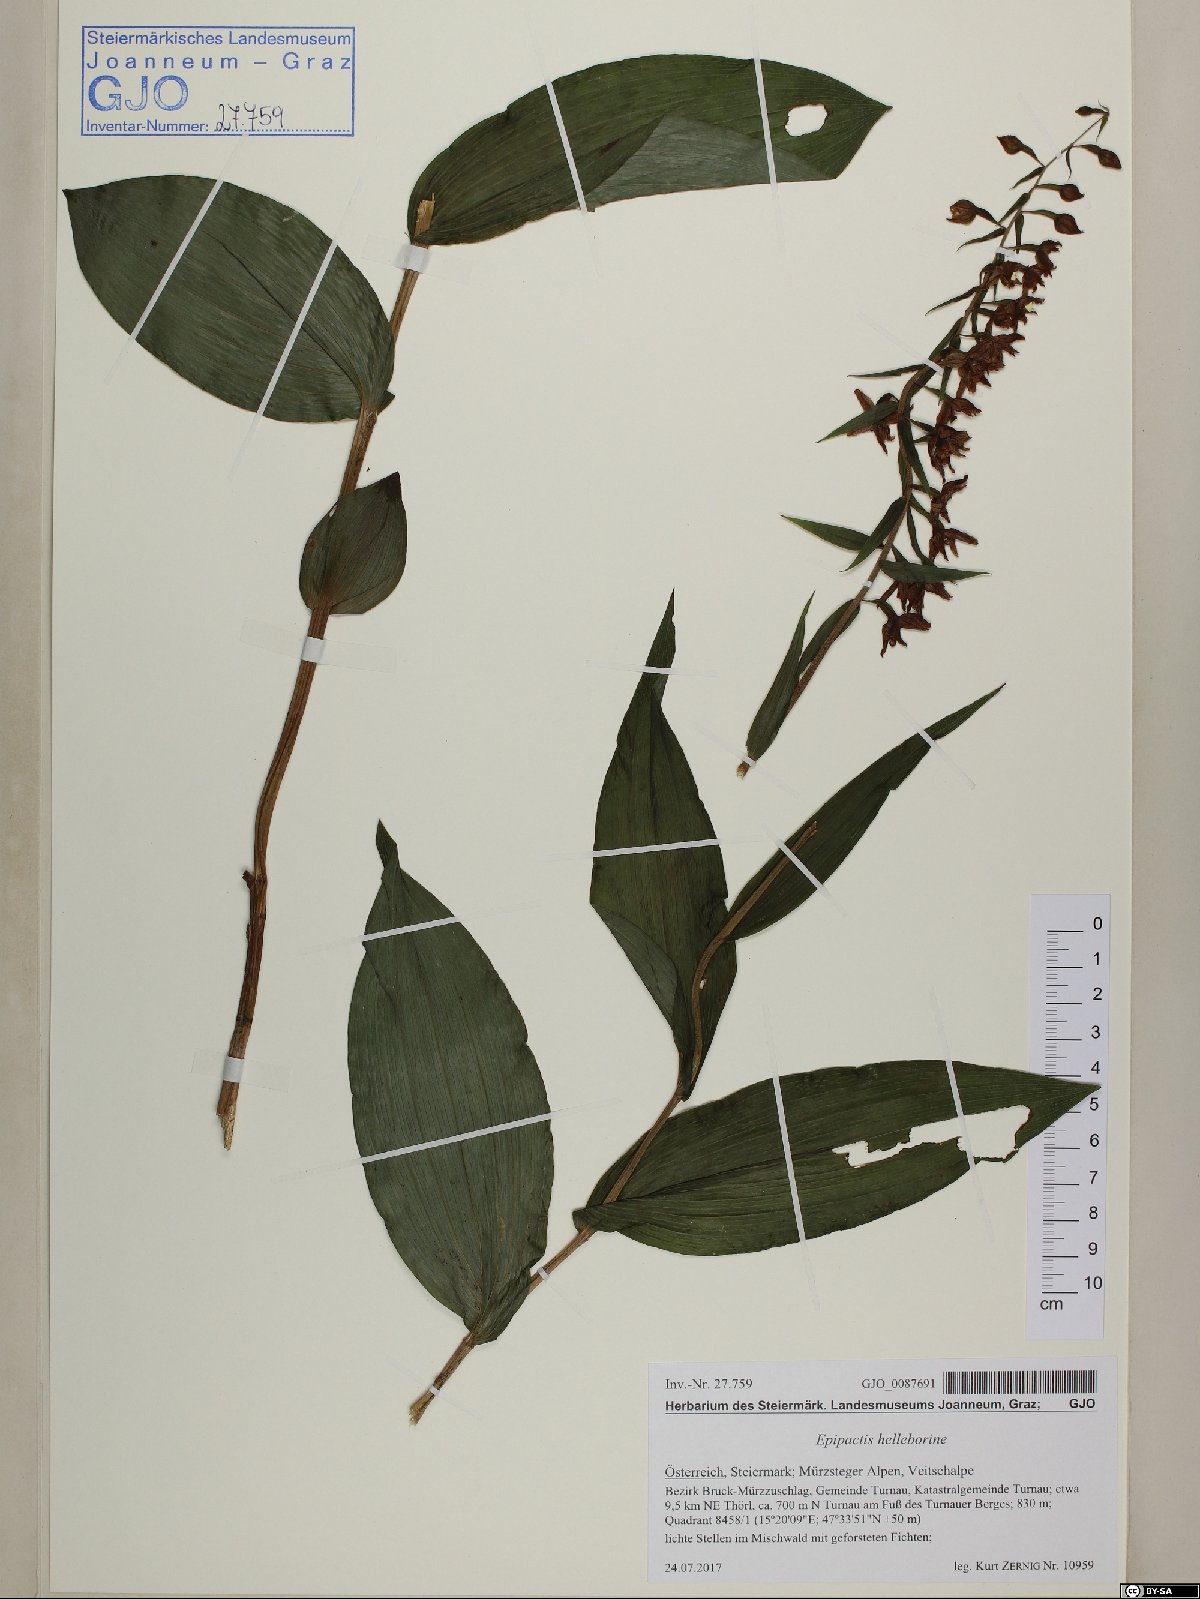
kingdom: Plantae
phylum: Tracheophyta
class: Liliopsida
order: Asparagales
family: Orchidaceae
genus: Epipactis
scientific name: Epipactis helleborine
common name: Broad-leaved helleborine
